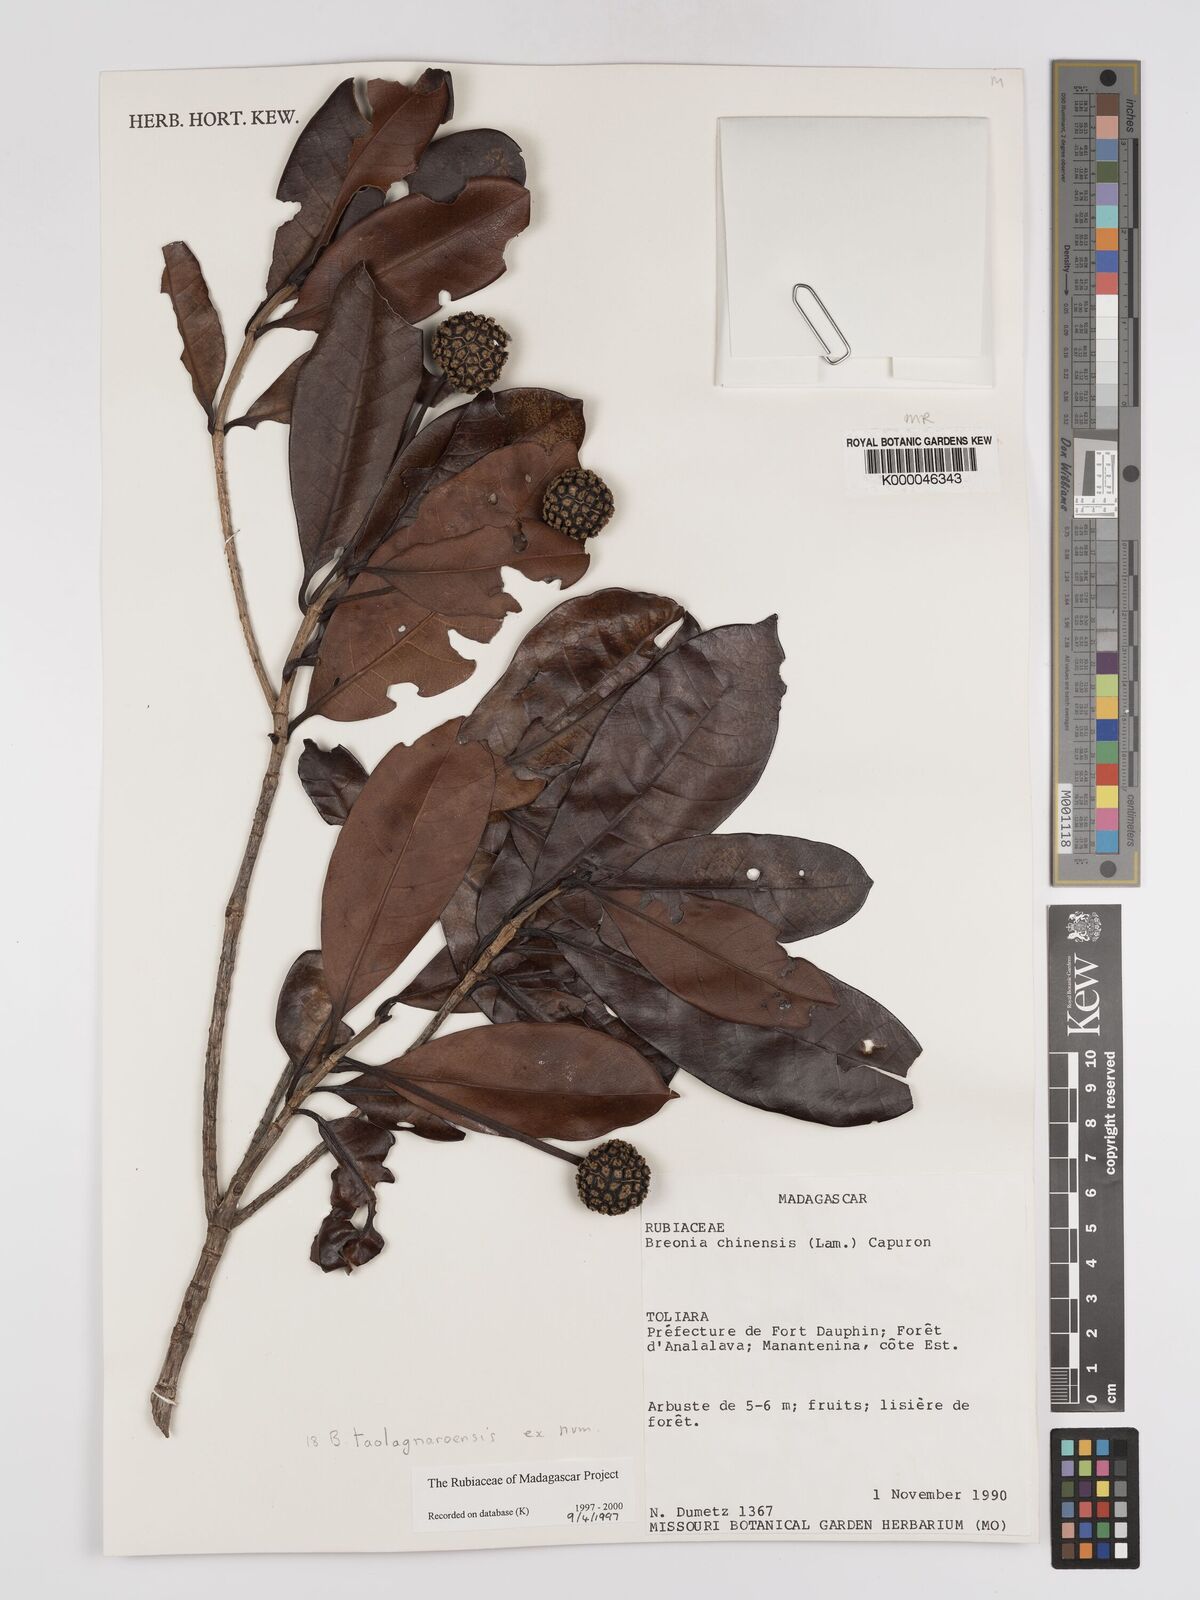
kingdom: Plantae
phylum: Tracheophyta
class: Magnoliopsida
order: Gentianales
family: Rubiaceae
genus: Breonia
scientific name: Breonia taolagnaroensis
